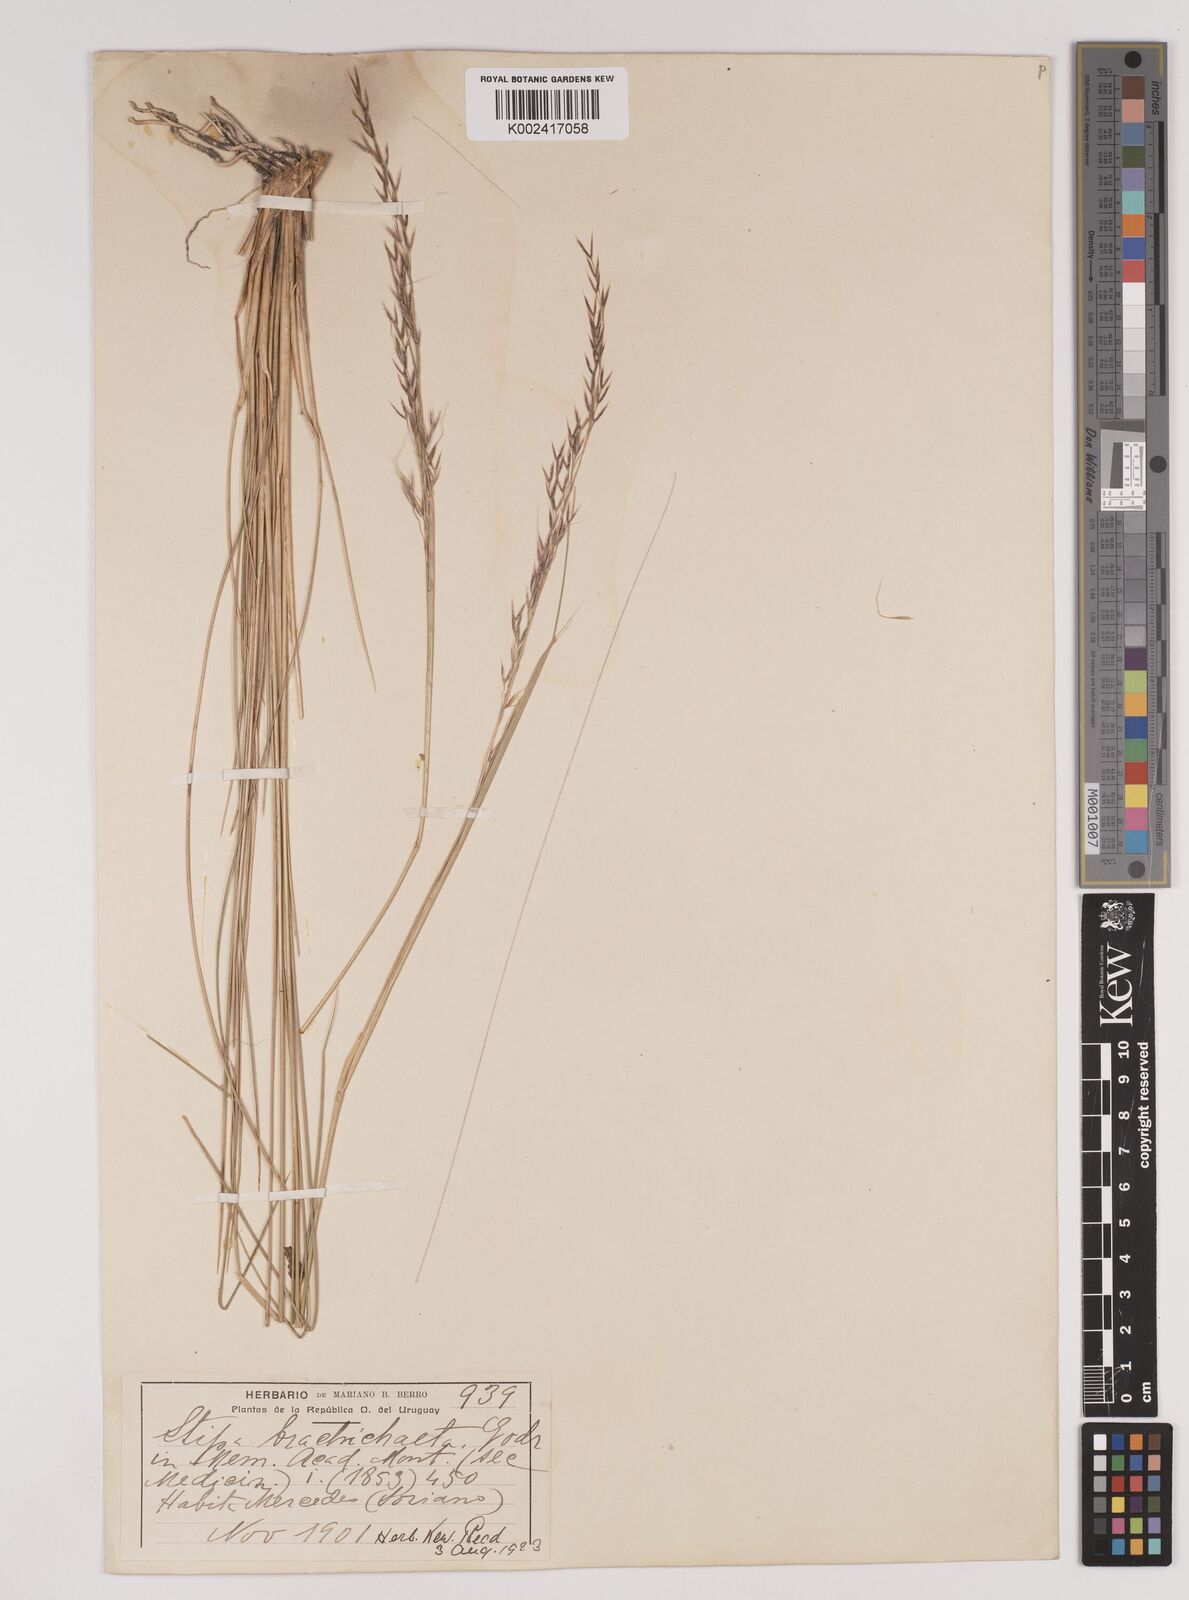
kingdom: Plantae
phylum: Tracheophyta
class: Liliopsida
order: Poales
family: Poaceae
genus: Amelichloa
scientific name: Amelichloa brachychaeta
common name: Shortbristled needlegrass
